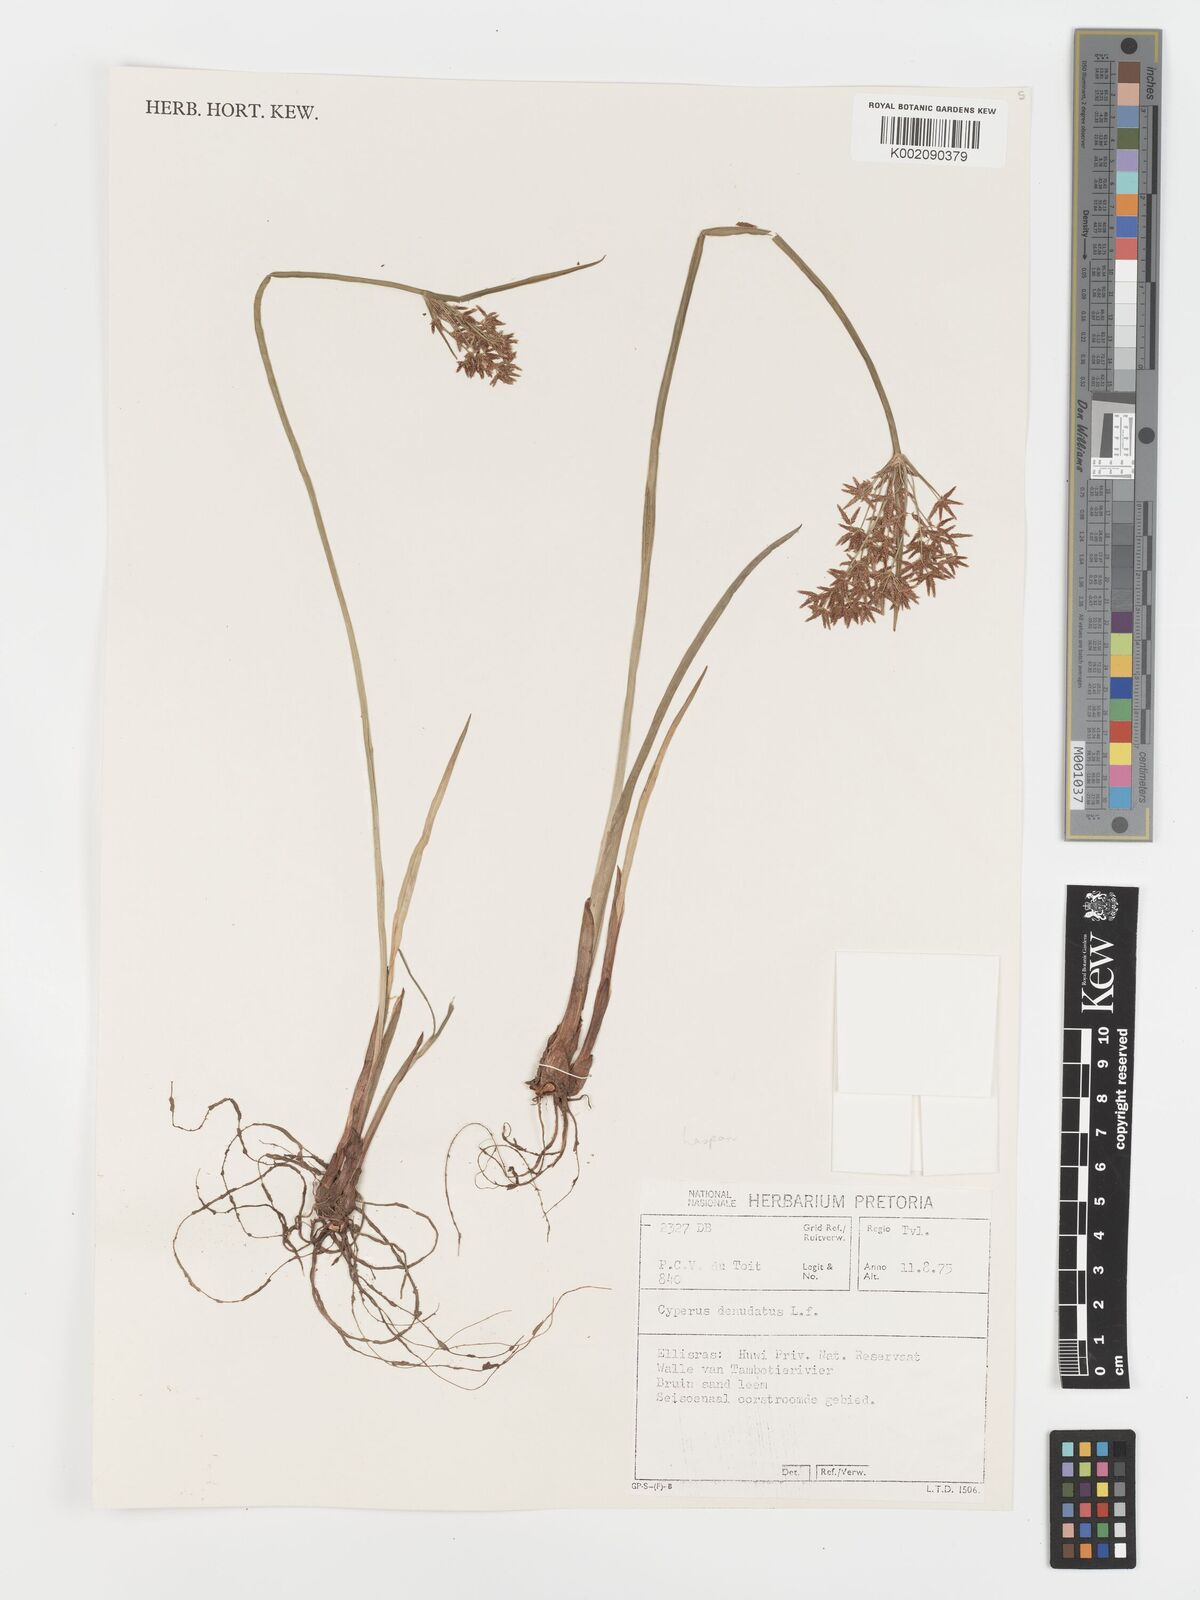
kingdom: Plantae
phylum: Tracheophyta
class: Liliopsida
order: Poales
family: Cyperaceae
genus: Cyperus
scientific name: Cyperus haspan
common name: Haspan flatsedge
